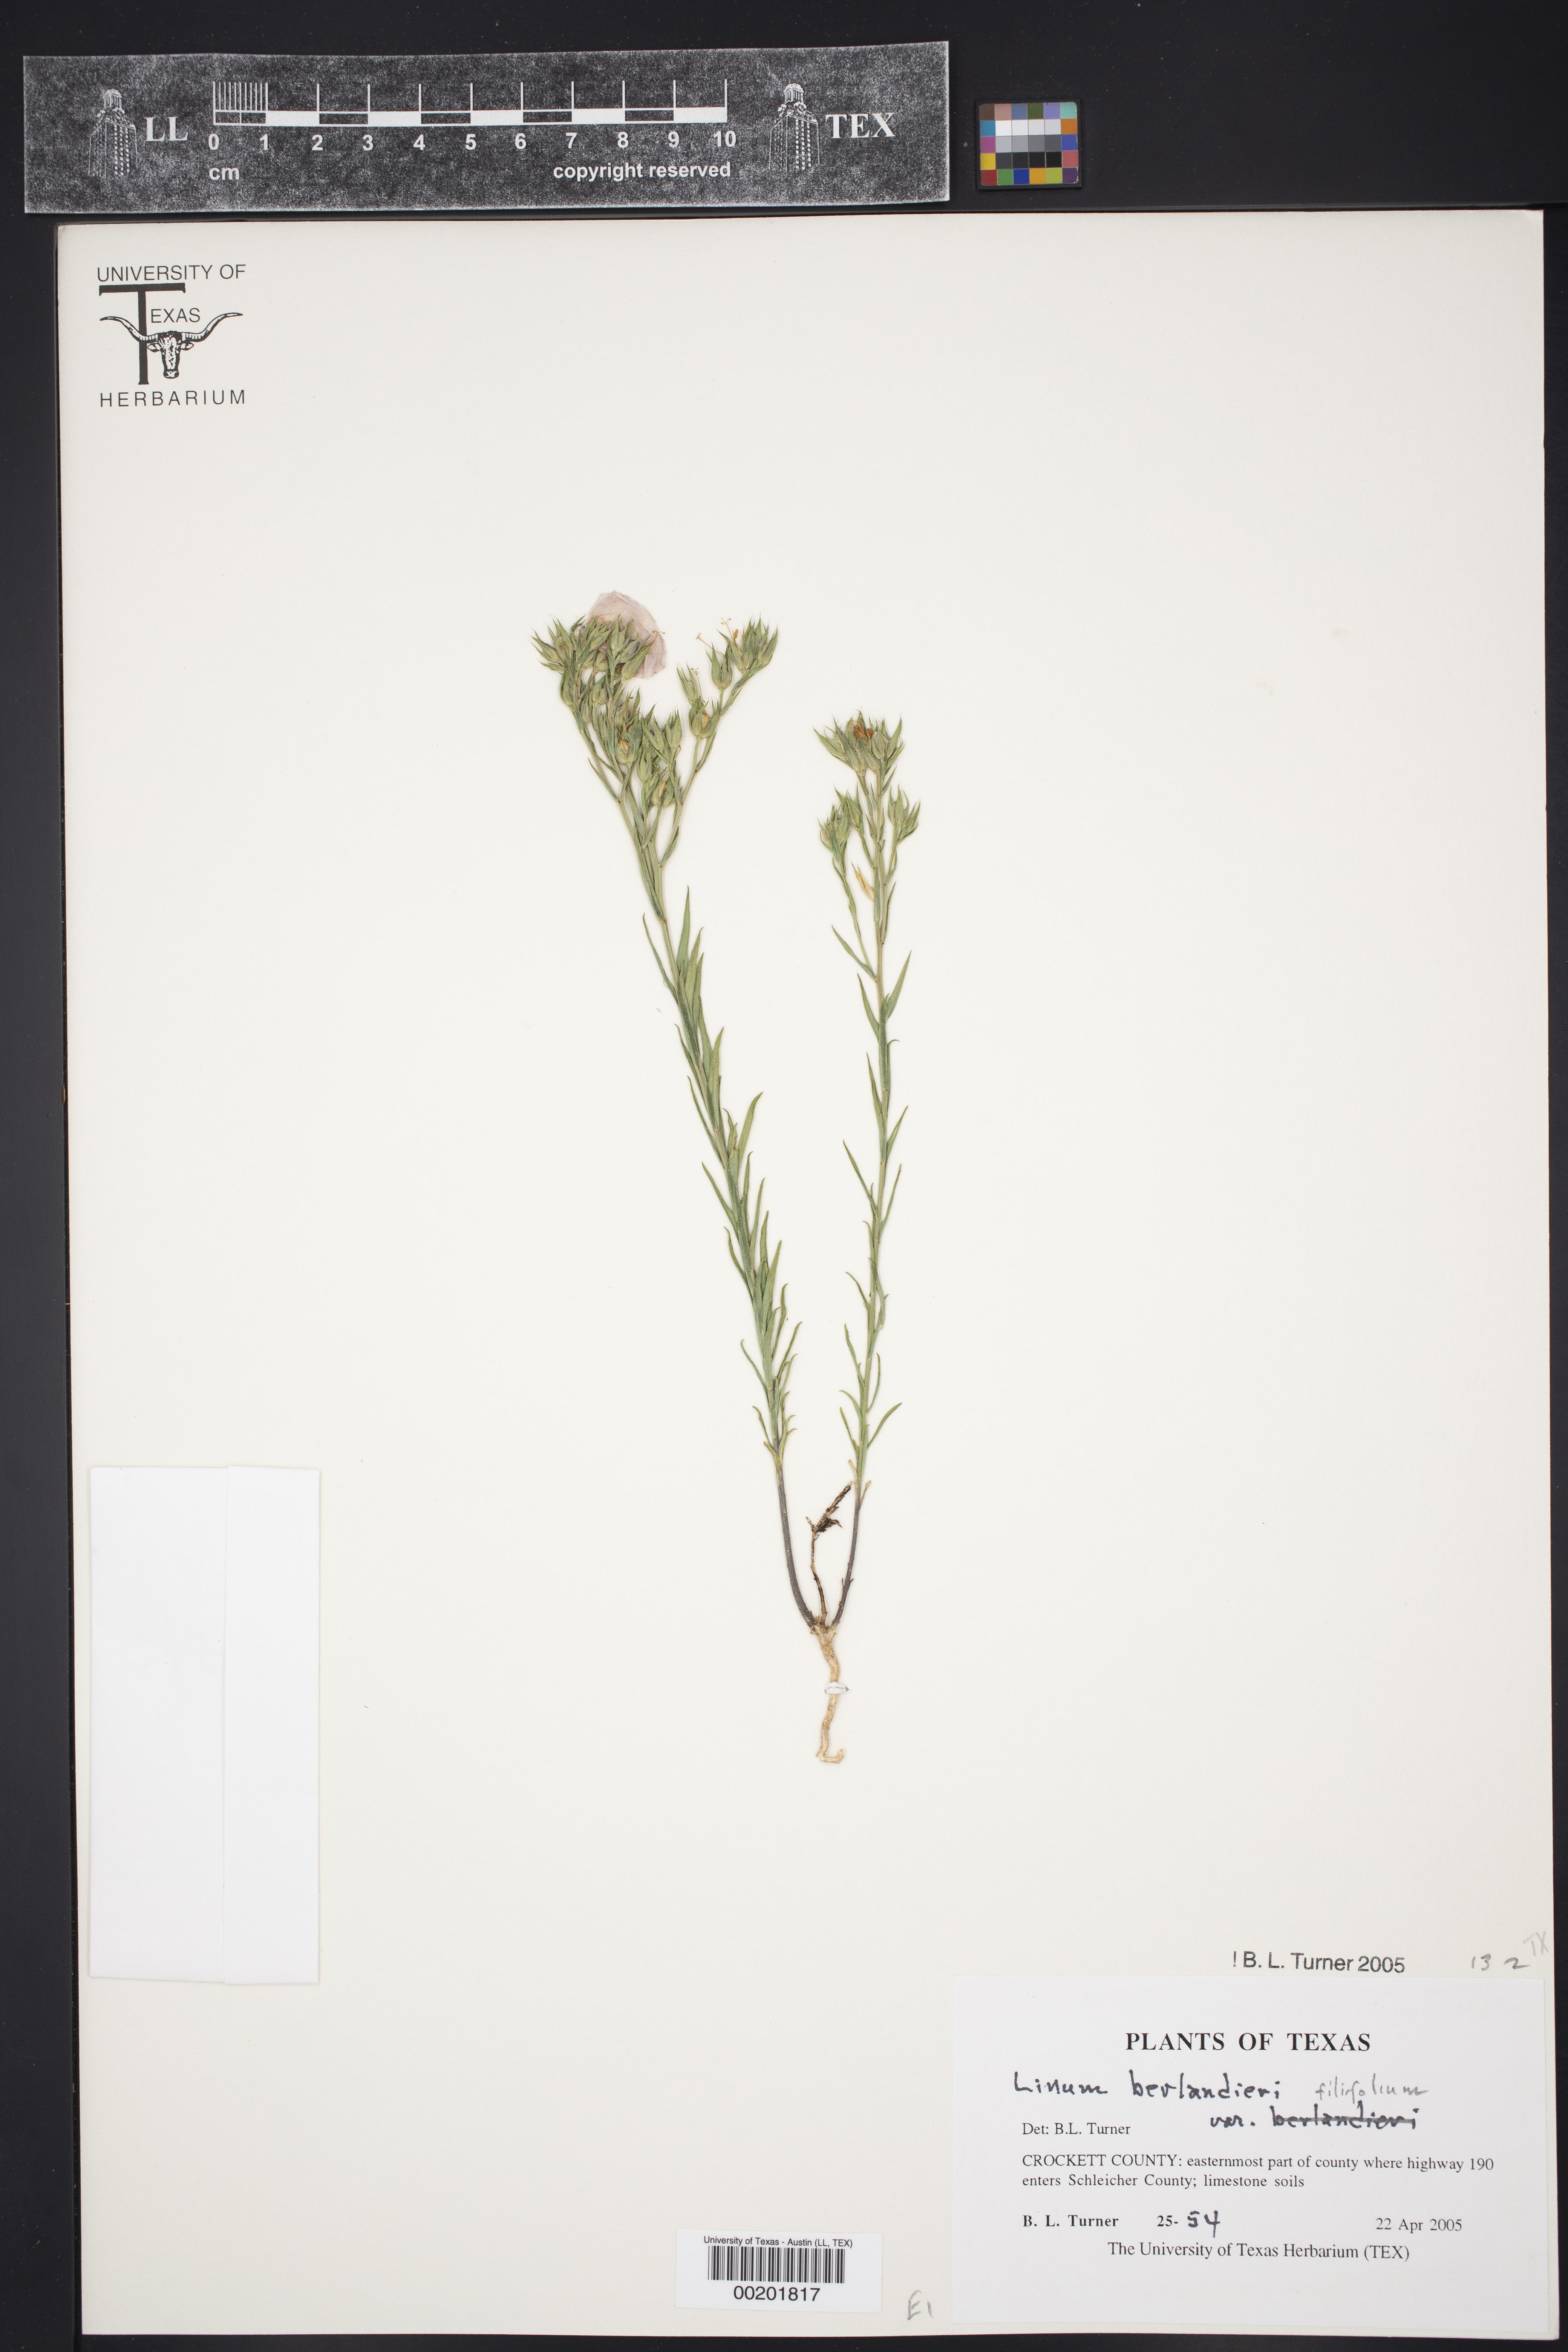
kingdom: Plantae
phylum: Tracheophyta
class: Magnoliopsida
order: Malpighiales
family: Linaceae
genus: Linum
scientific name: Linum berlandieri
